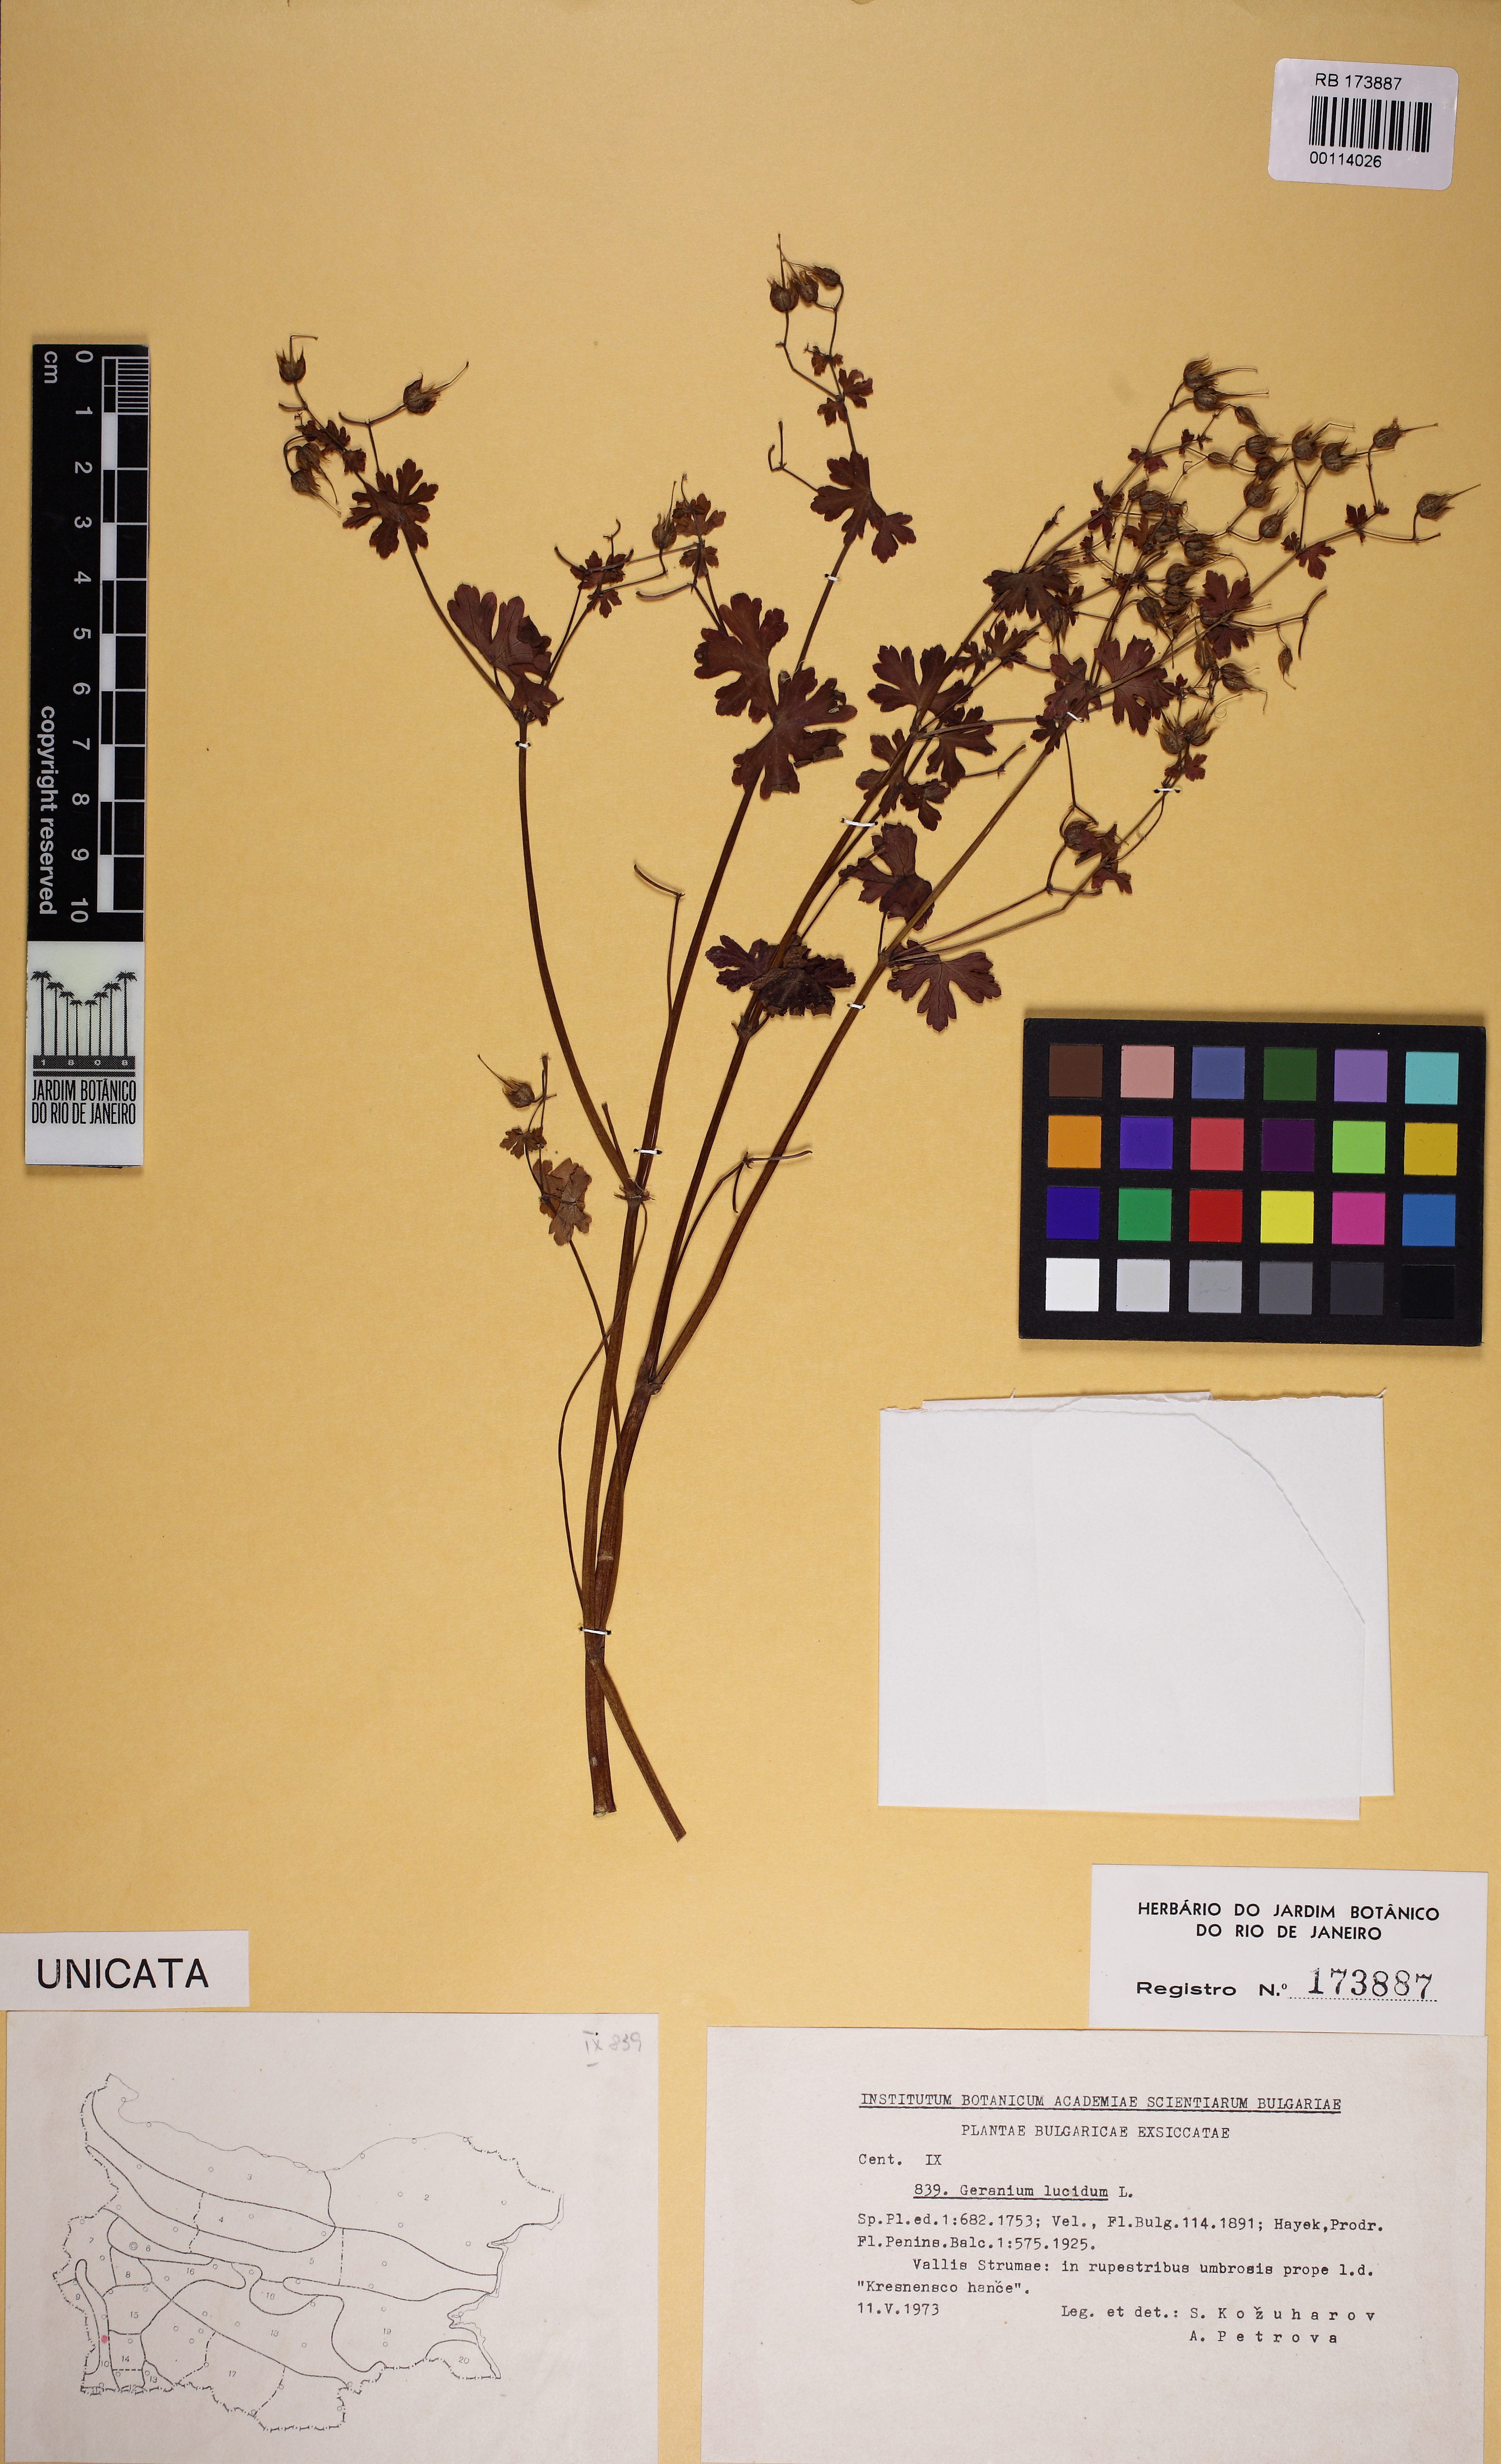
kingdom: Plantae
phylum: Tracheophyta
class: Magnoliopsida
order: Geraniales
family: Geraniaceae
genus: Geranium
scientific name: Geranium lucidum
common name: Shining crane's-bill
